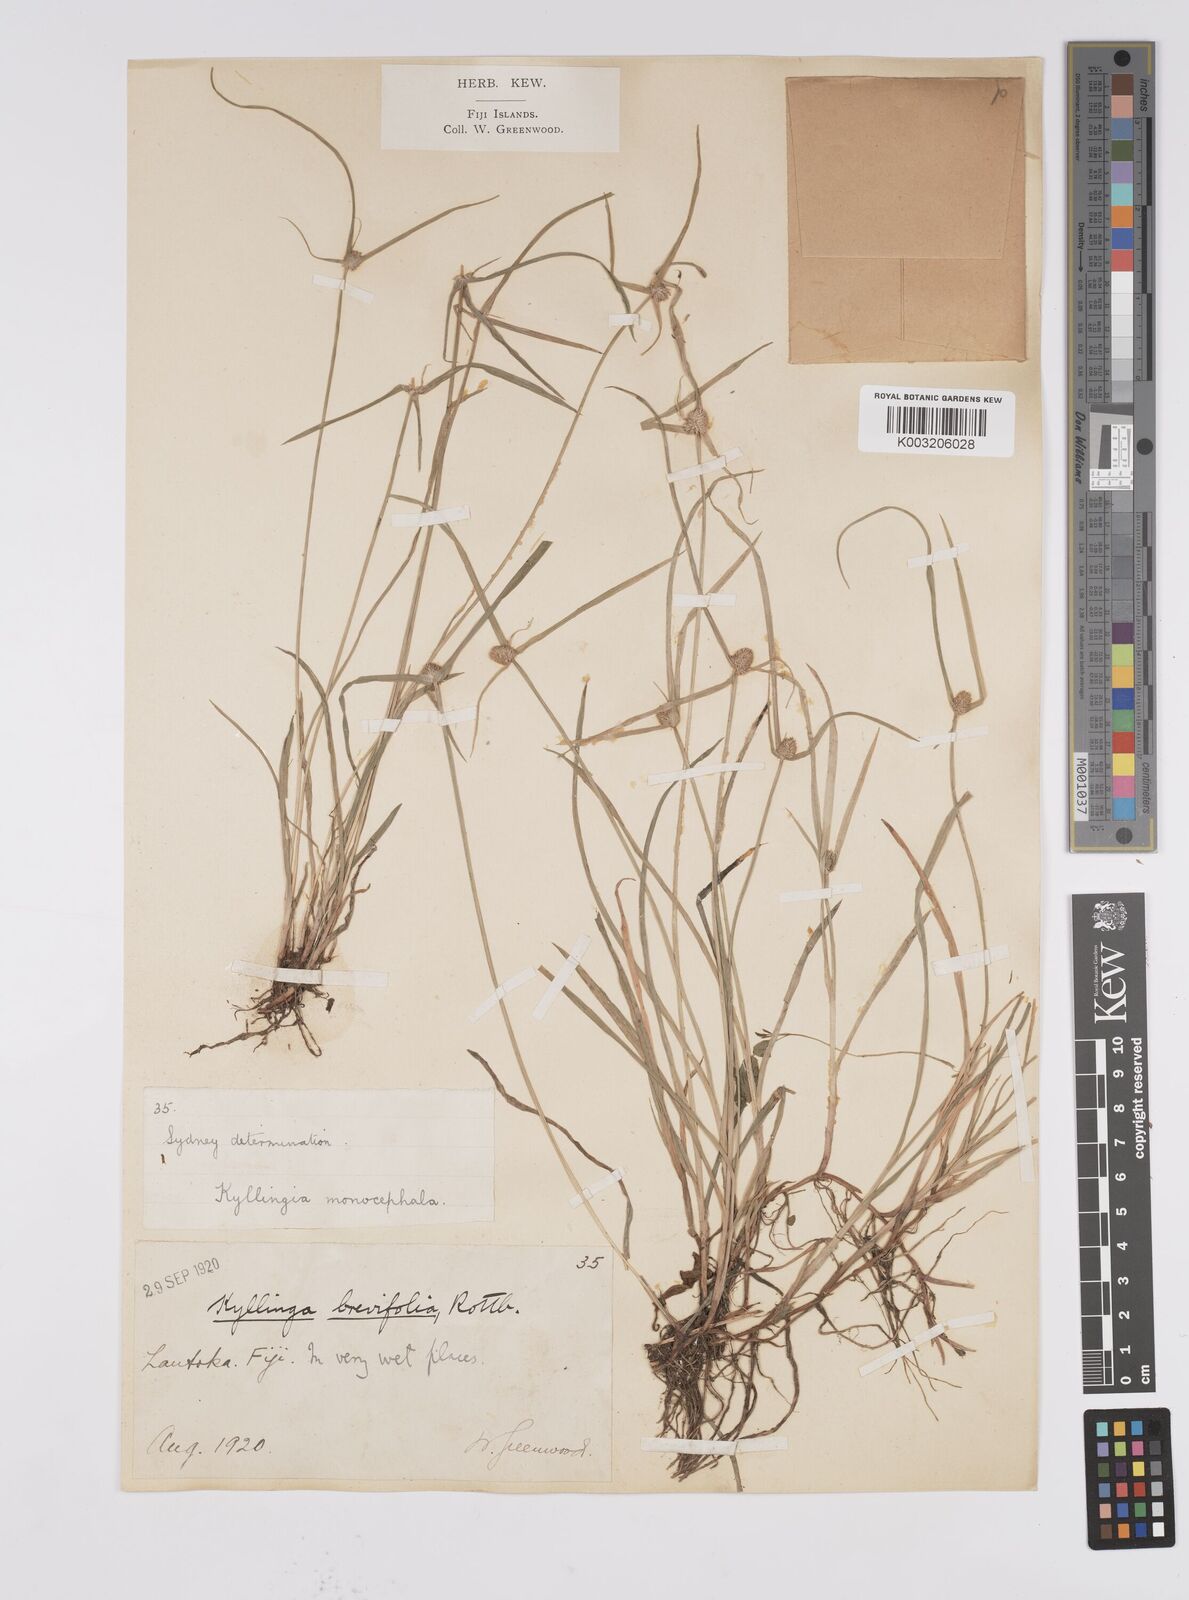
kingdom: Plantae
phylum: Tracheophyta
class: Liliopsida
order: Poales
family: Cyperaceae
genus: Cyperus
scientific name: Cyperus brevifolius
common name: Globe kyllinga
